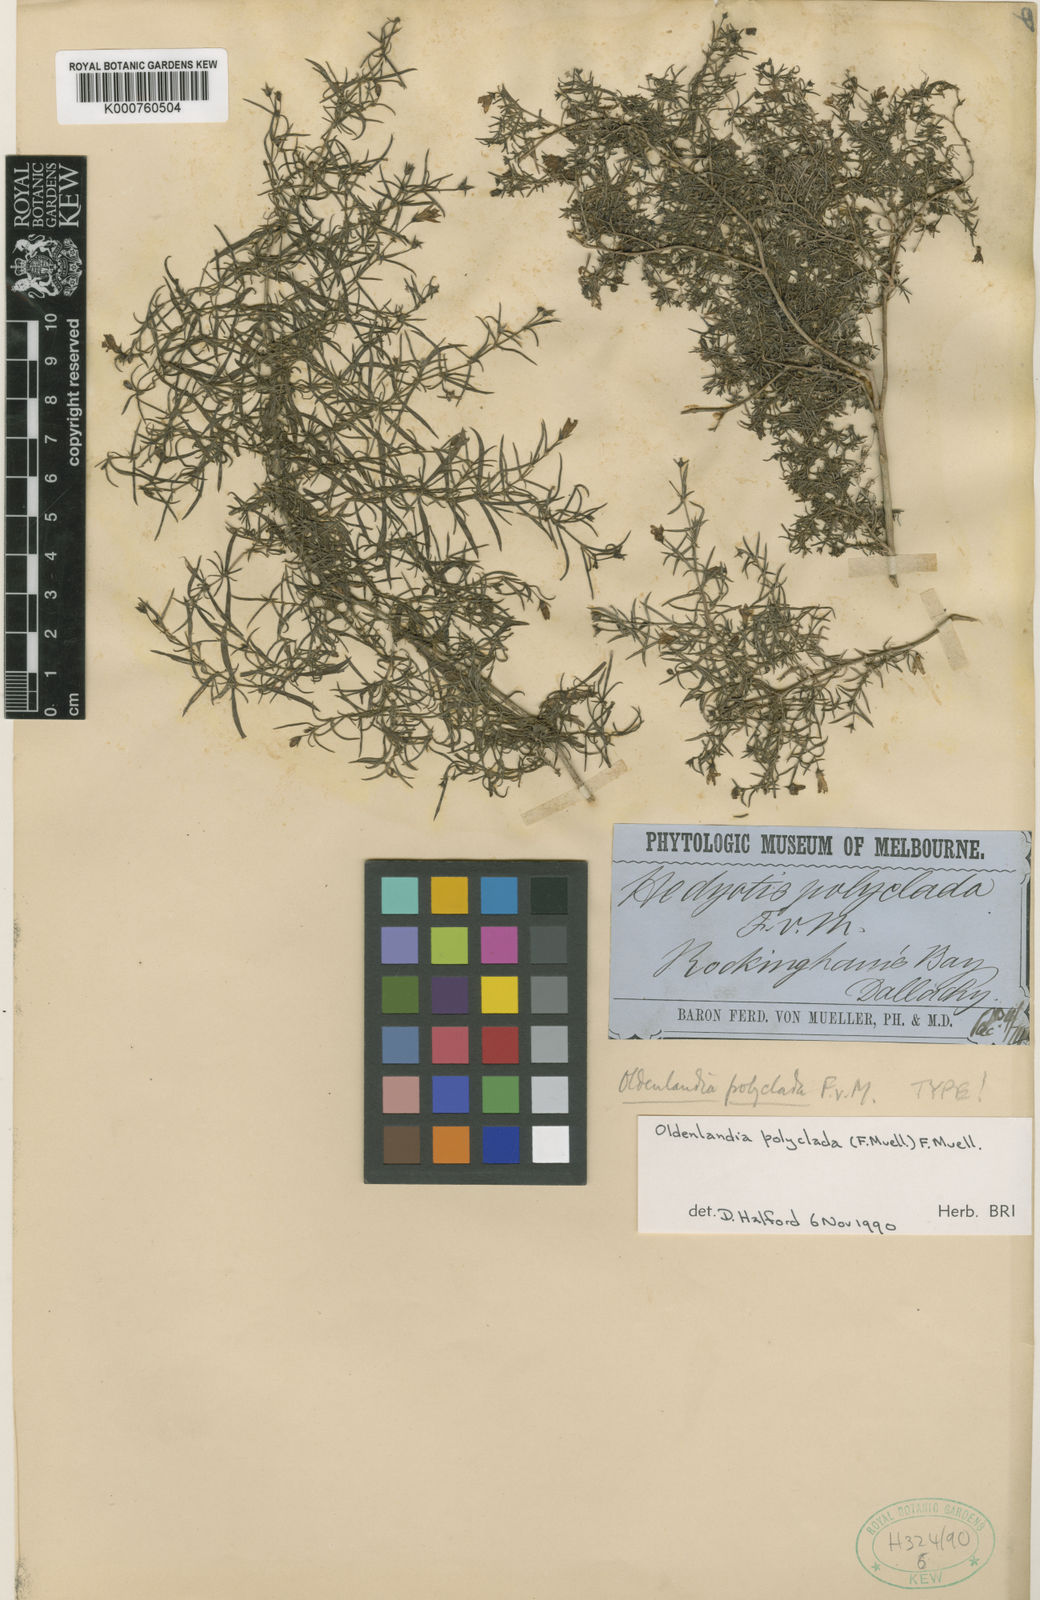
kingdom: Plantae
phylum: Tracheophyta
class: Magnoliopsida
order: Gentianales
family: Rubiaceae
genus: Scleromitrion
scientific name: Scleromitrion polycladum
